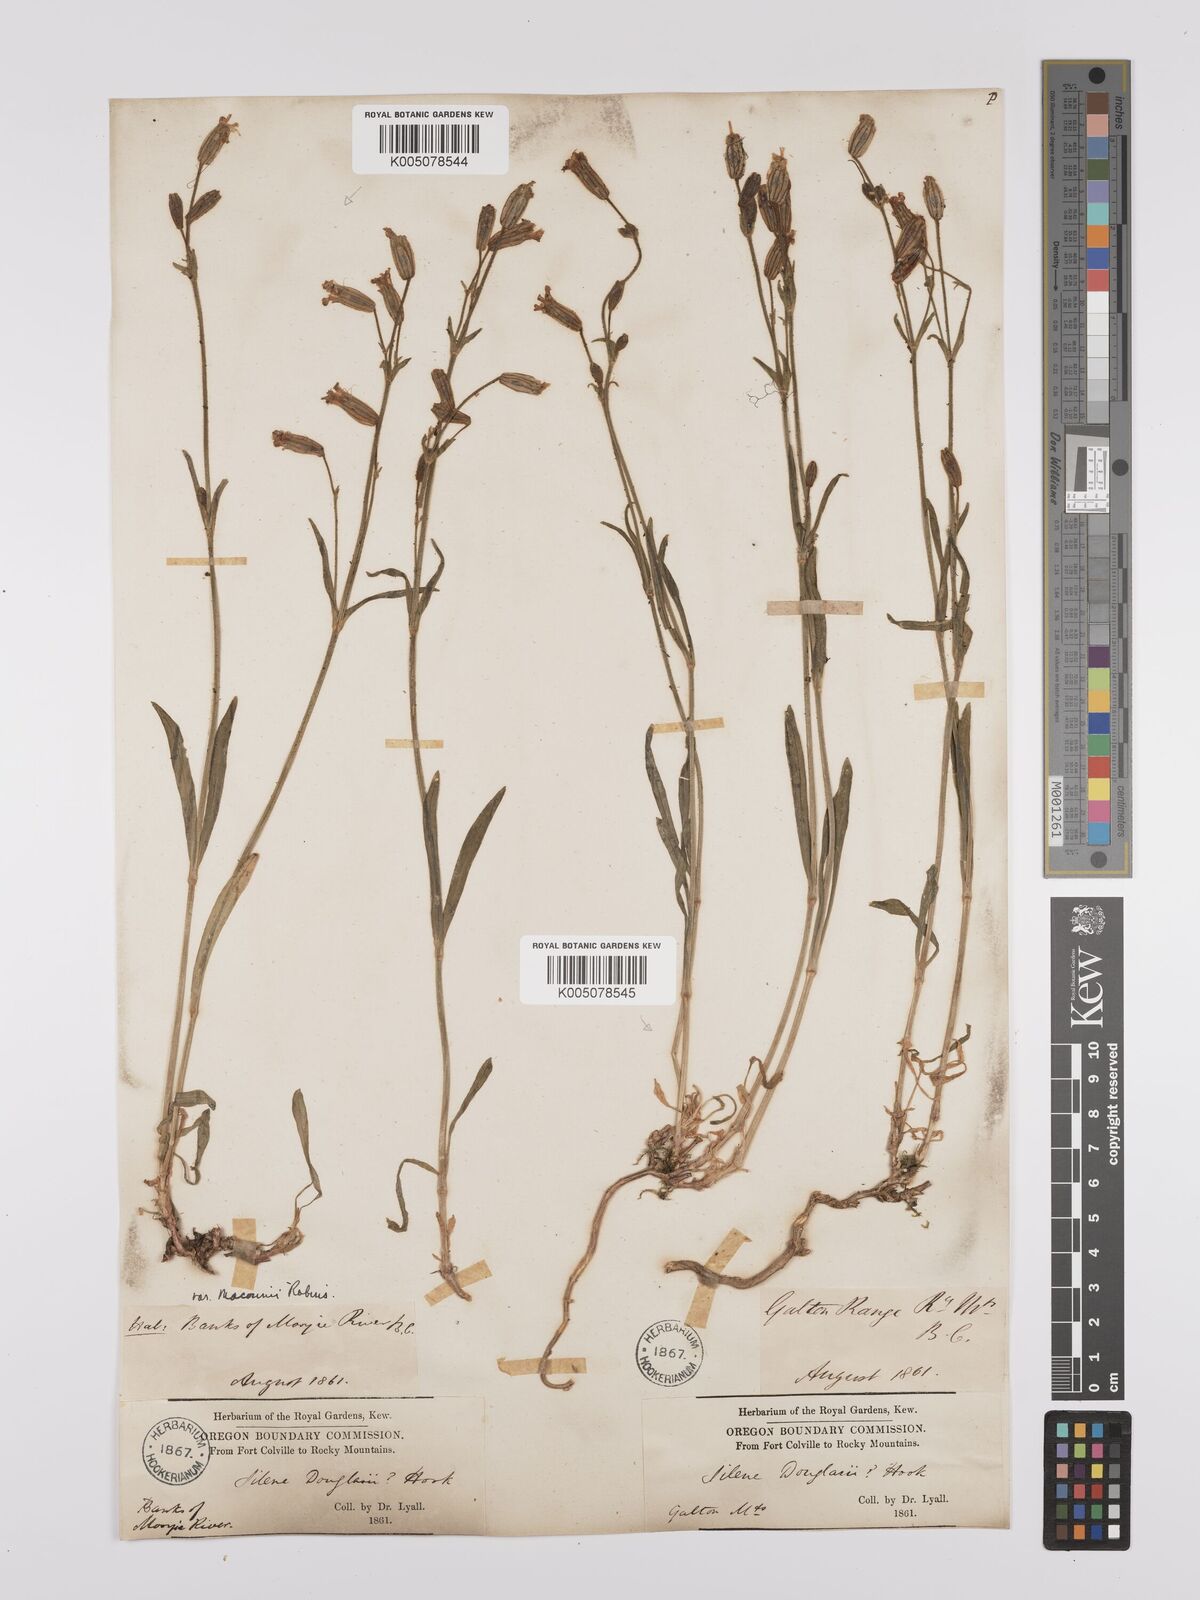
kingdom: Plantae
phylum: Tracheophyta
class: Magnoliopsida
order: Caryophyllales
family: Caryophyllaceae
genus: Silene
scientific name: Silene parryi
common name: Parry's campion
